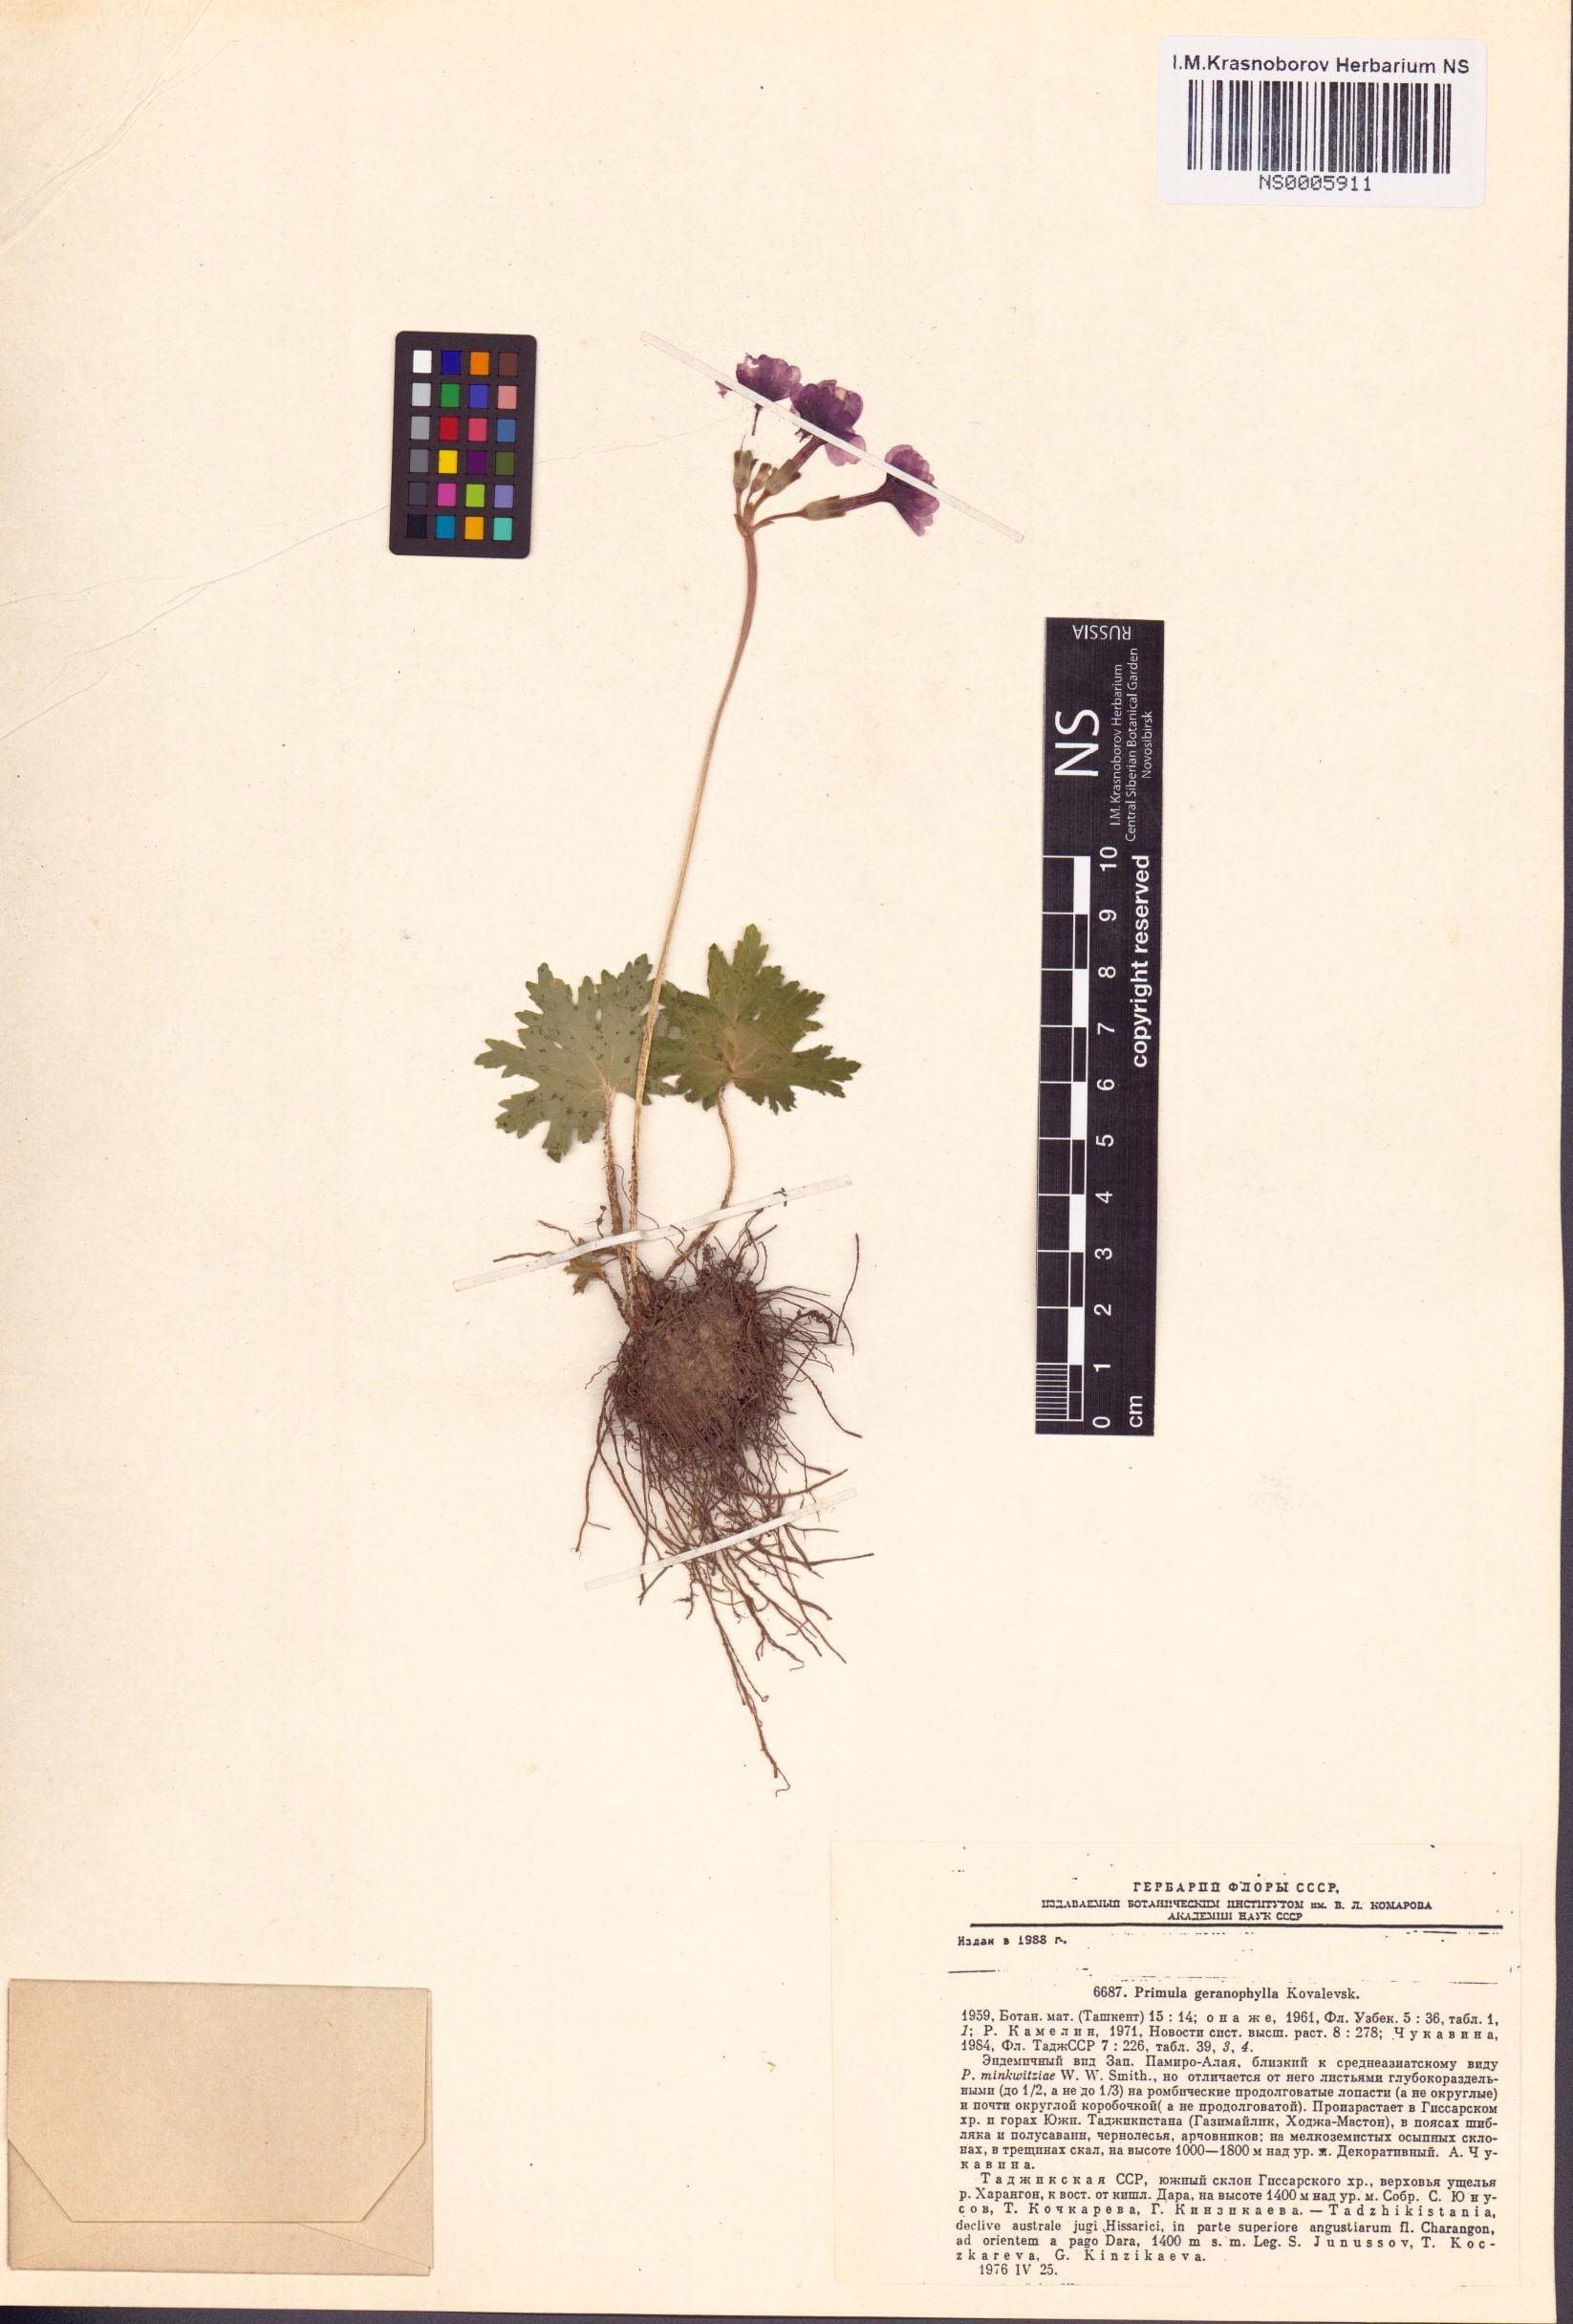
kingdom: Plantae
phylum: Tracheophyta
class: Magnoliopsida
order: Ericales
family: Primulaceae
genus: Primula
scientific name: Primula geranophylla
